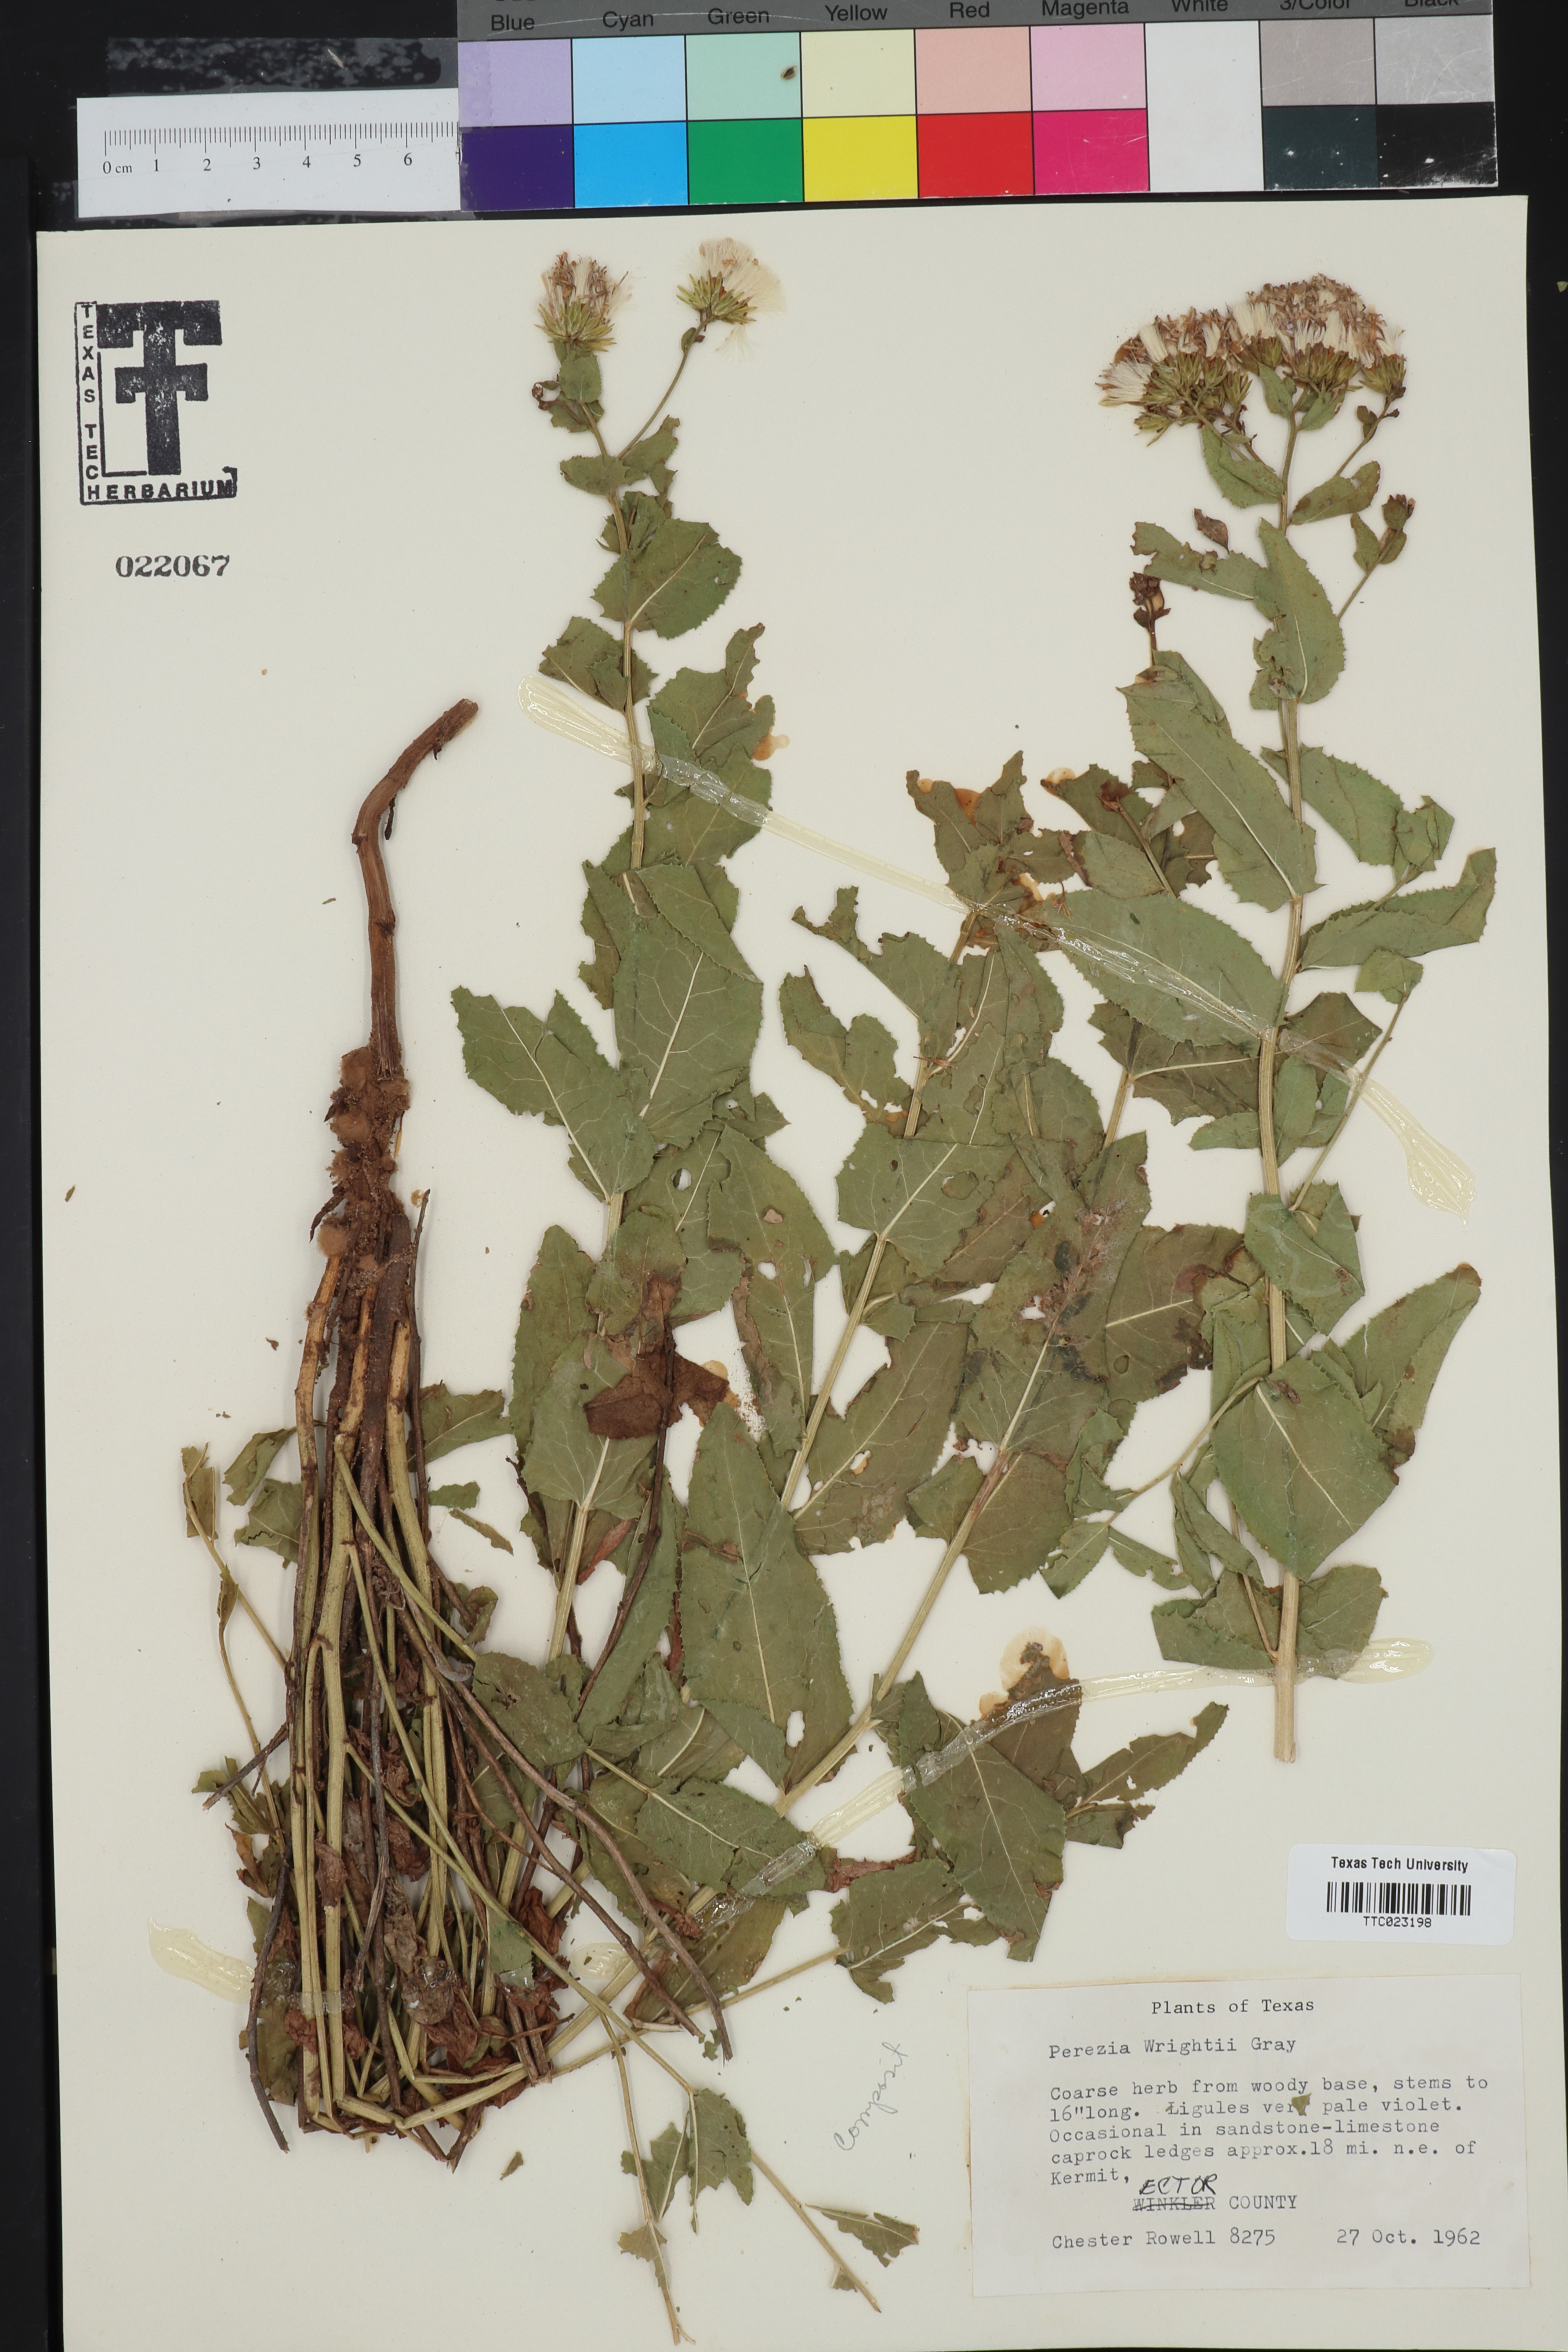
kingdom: Plantae
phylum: Tracheophyta
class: Magnoliopsida
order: Asterales
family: Asteraceae
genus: Acourtia
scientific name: Acourtia wrightii
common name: Brownfoot
